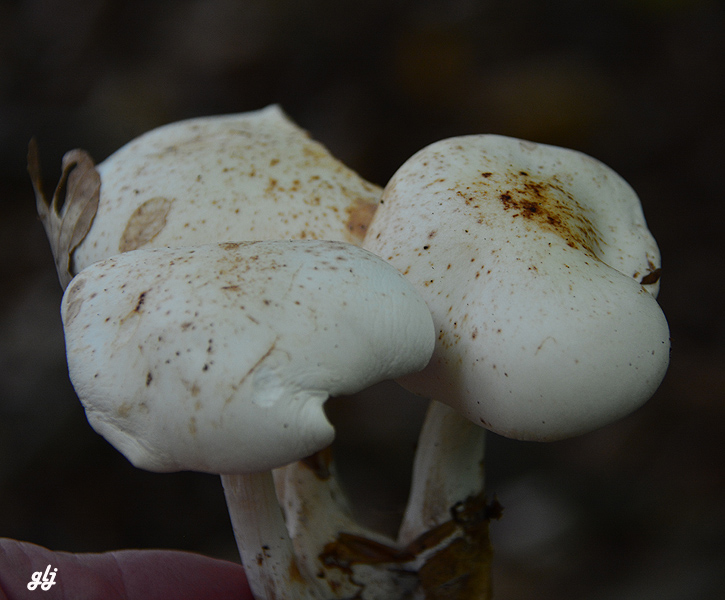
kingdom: Fungi
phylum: Basidiomycota
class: Agaricomycetes
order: Agaricales
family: Omphalotaceae
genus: Rhodocollybia
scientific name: Rhodocollybia maculata
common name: plettet fladhat
